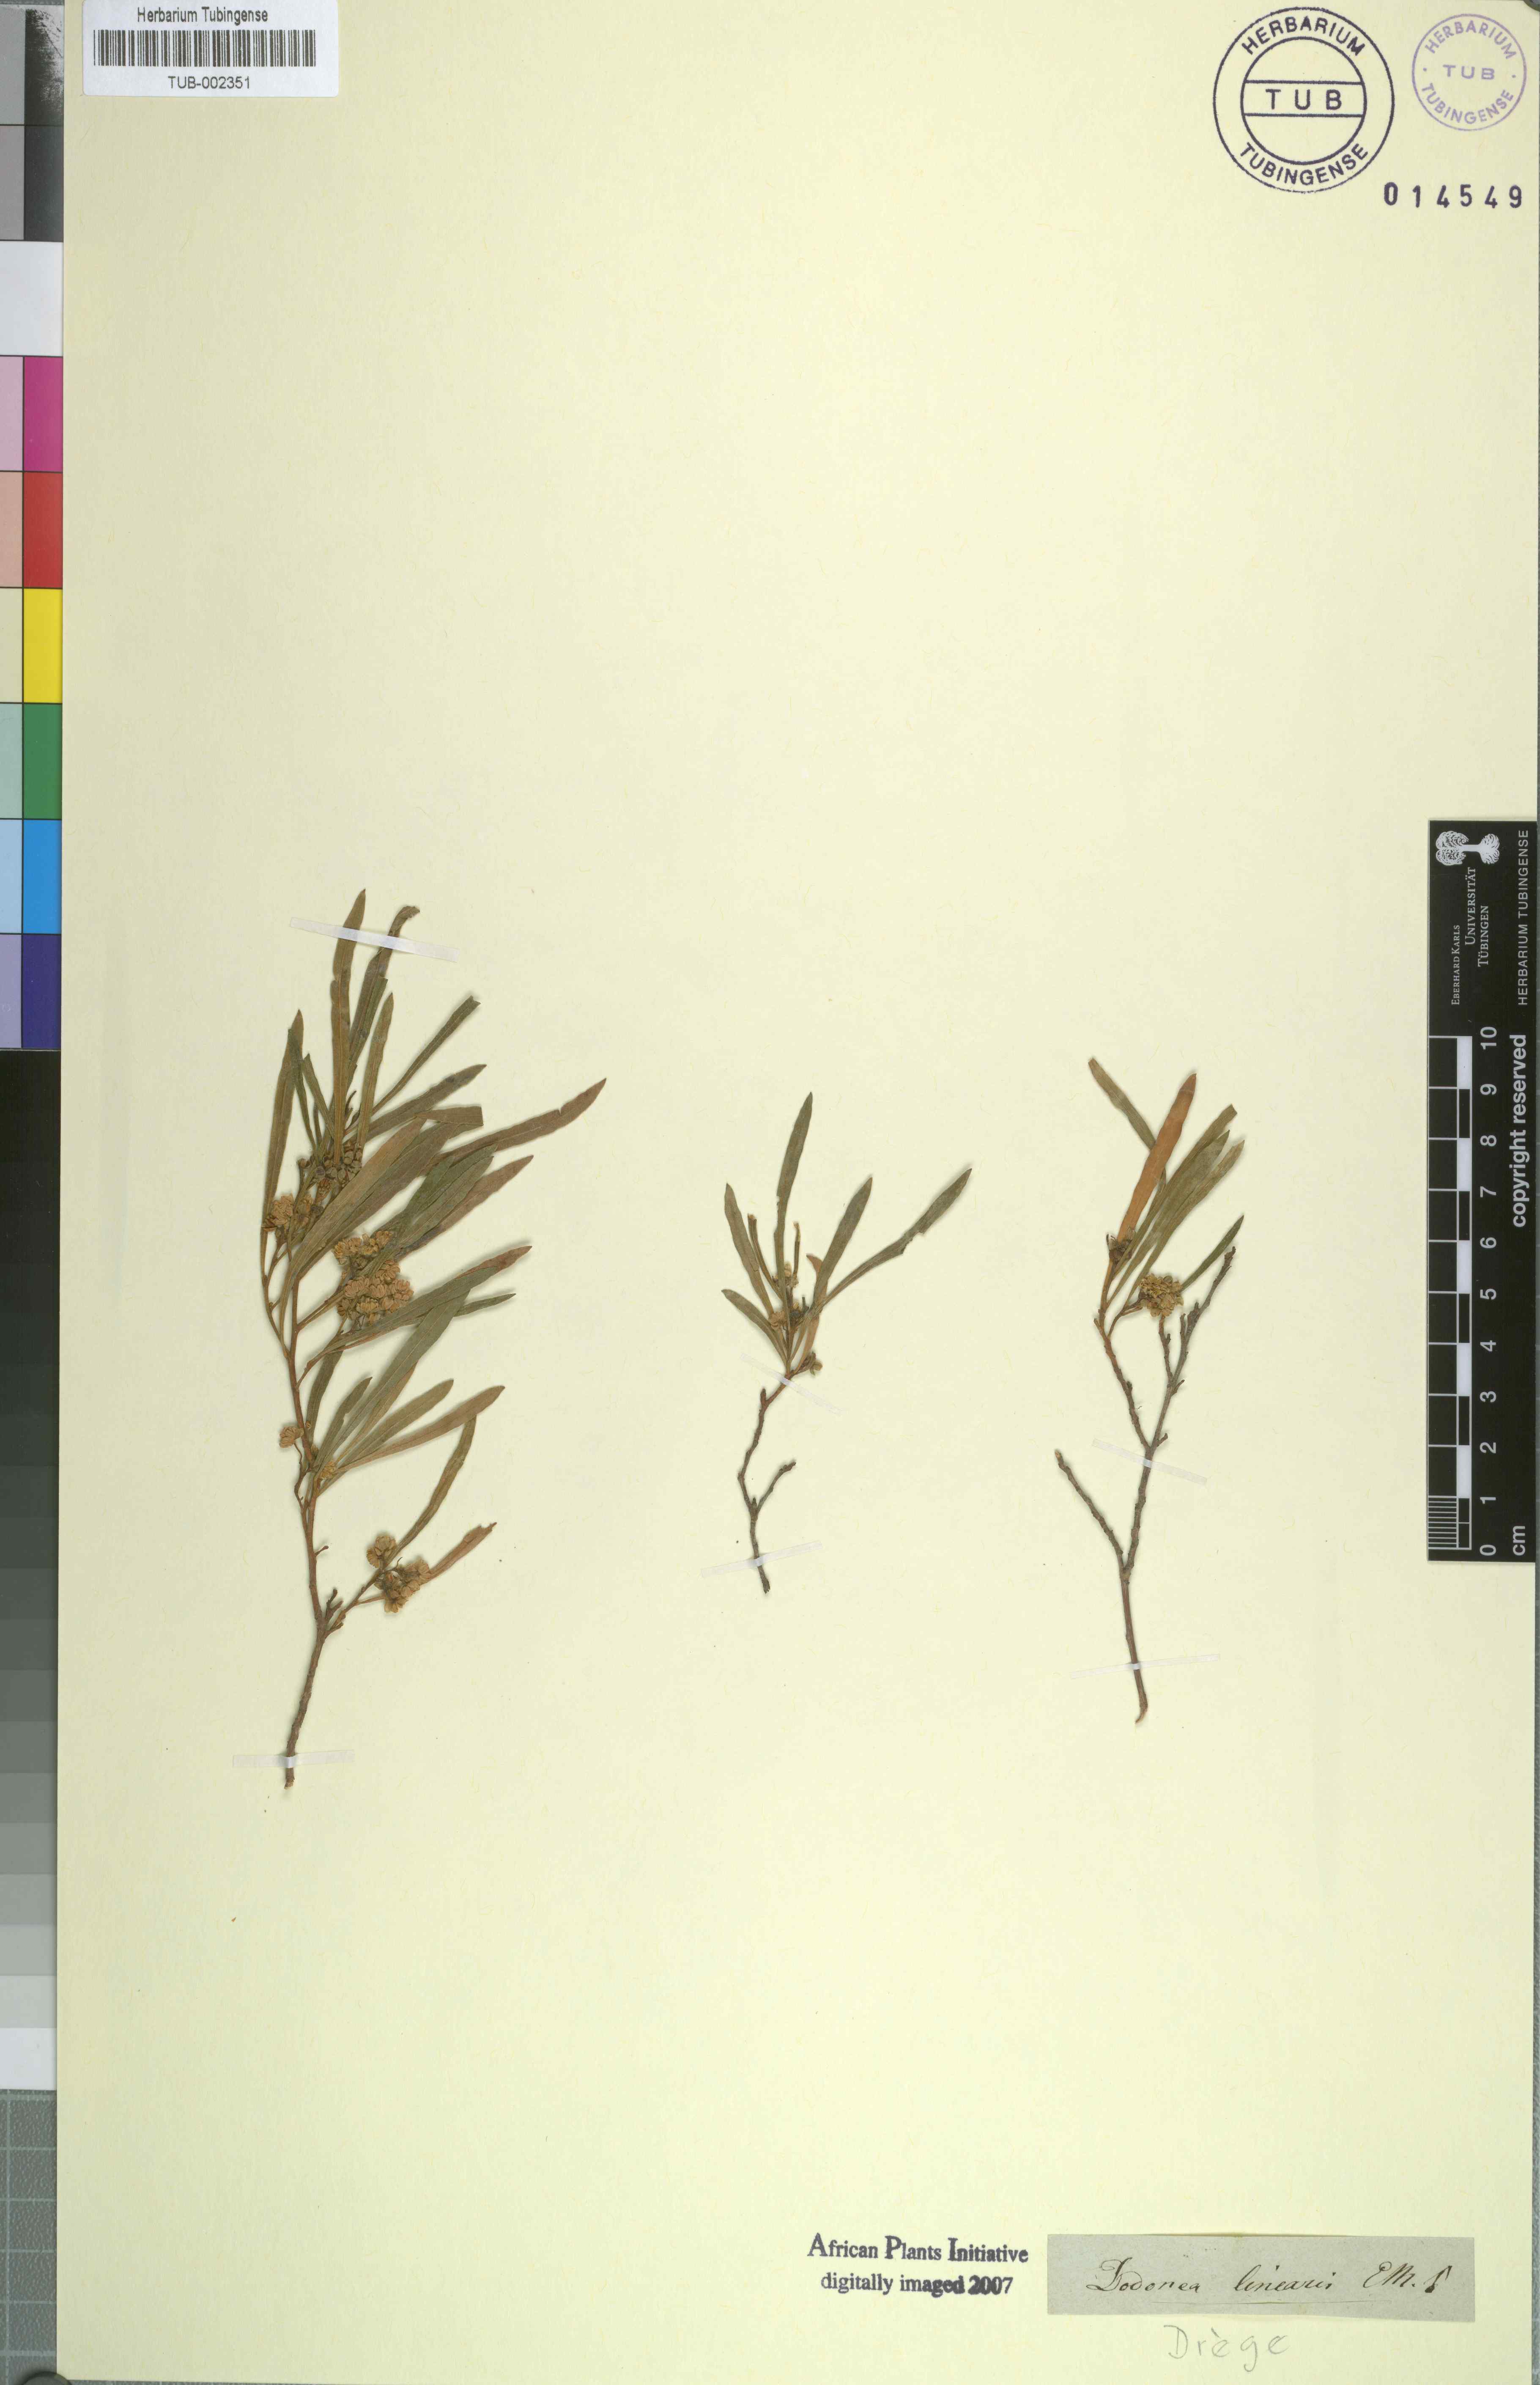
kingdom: Plantae
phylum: Tracheophyta
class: Magnoliopsida
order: Sapindales
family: Sapindaceae
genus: Dodonaea
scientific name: Dodonaea viscosa
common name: Hopbush
